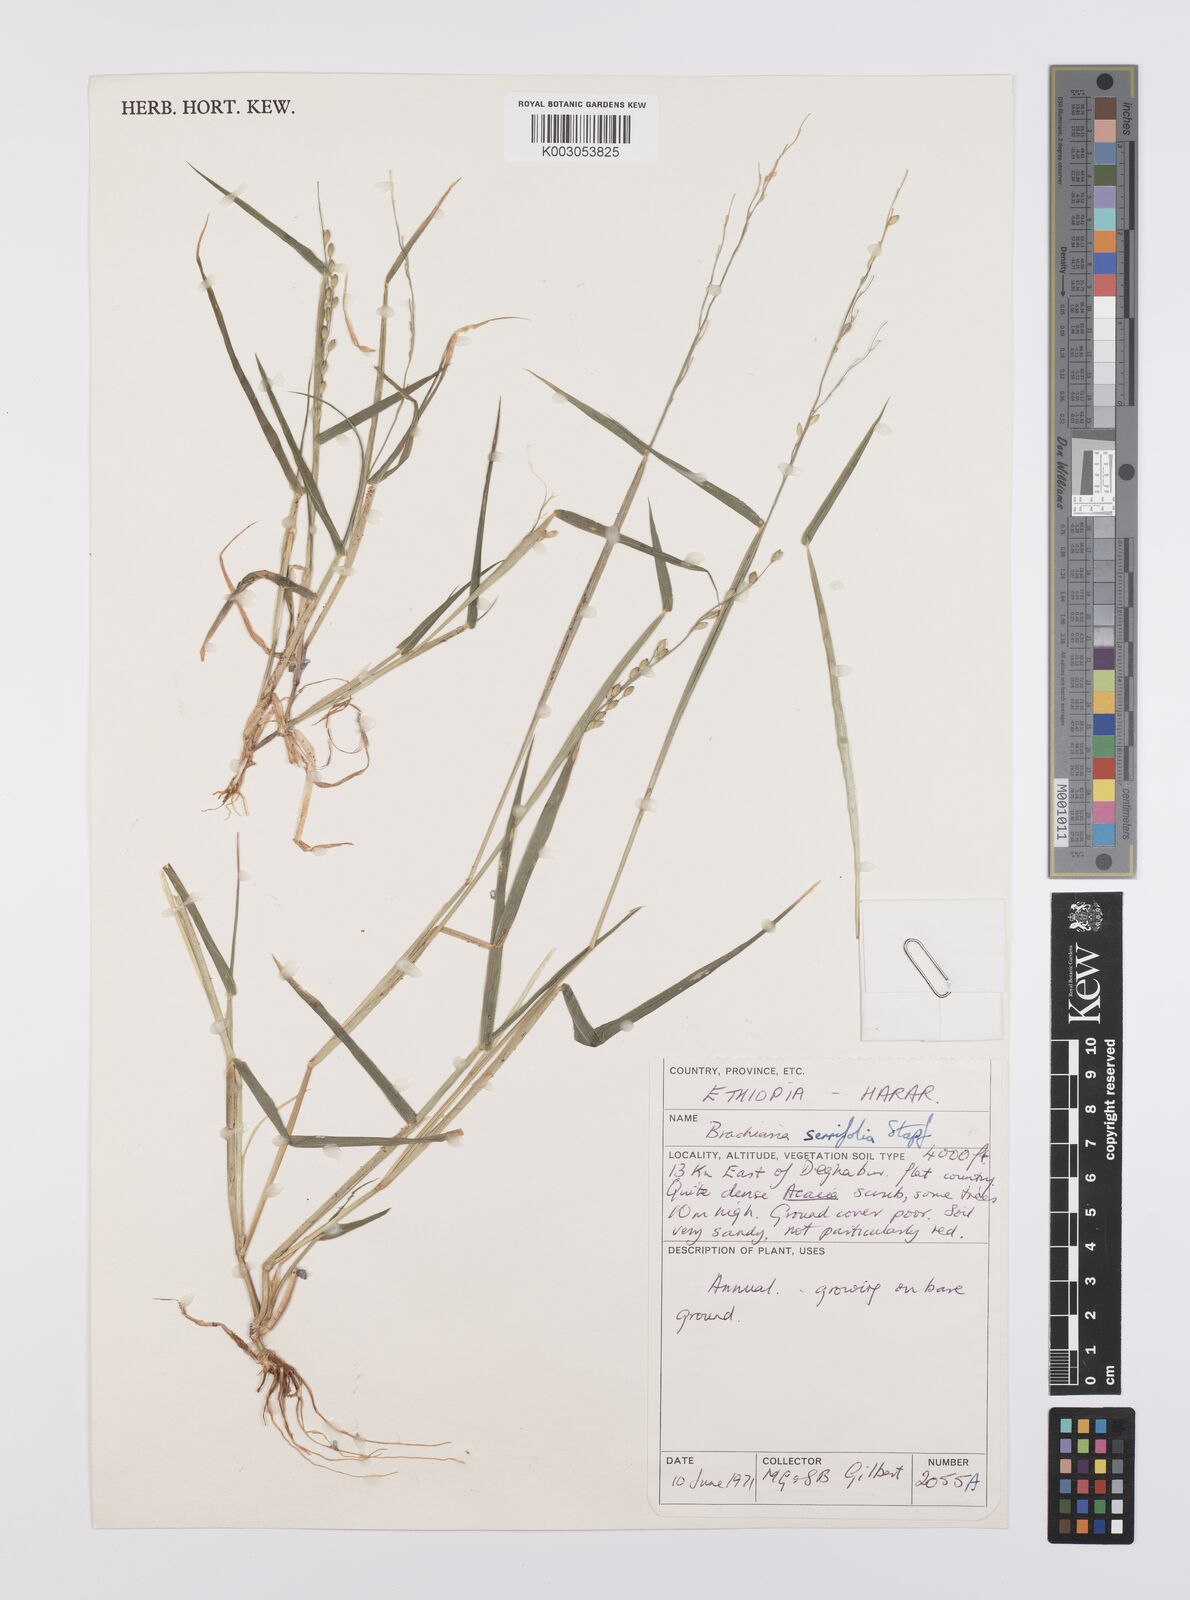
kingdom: Plantae
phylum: Tracheophyta
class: Liliopsida
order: Poales
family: Poaceae
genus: Urochloa
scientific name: Urochloa serrifolia
